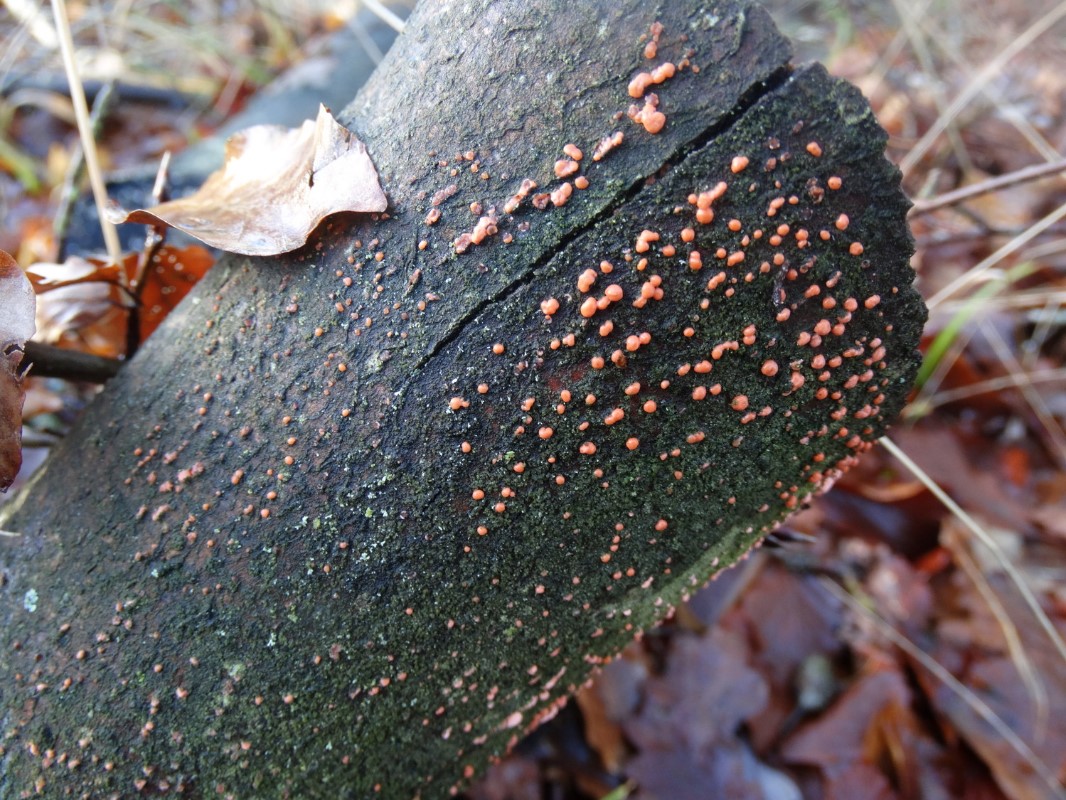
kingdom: Fungi
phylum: Ascomycota
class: Sordariomycetes
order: Hypocreales
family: Nectriaceae
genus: Nectria
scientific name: Nectria cinnabarina
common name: almindelig cinnobersvamp
